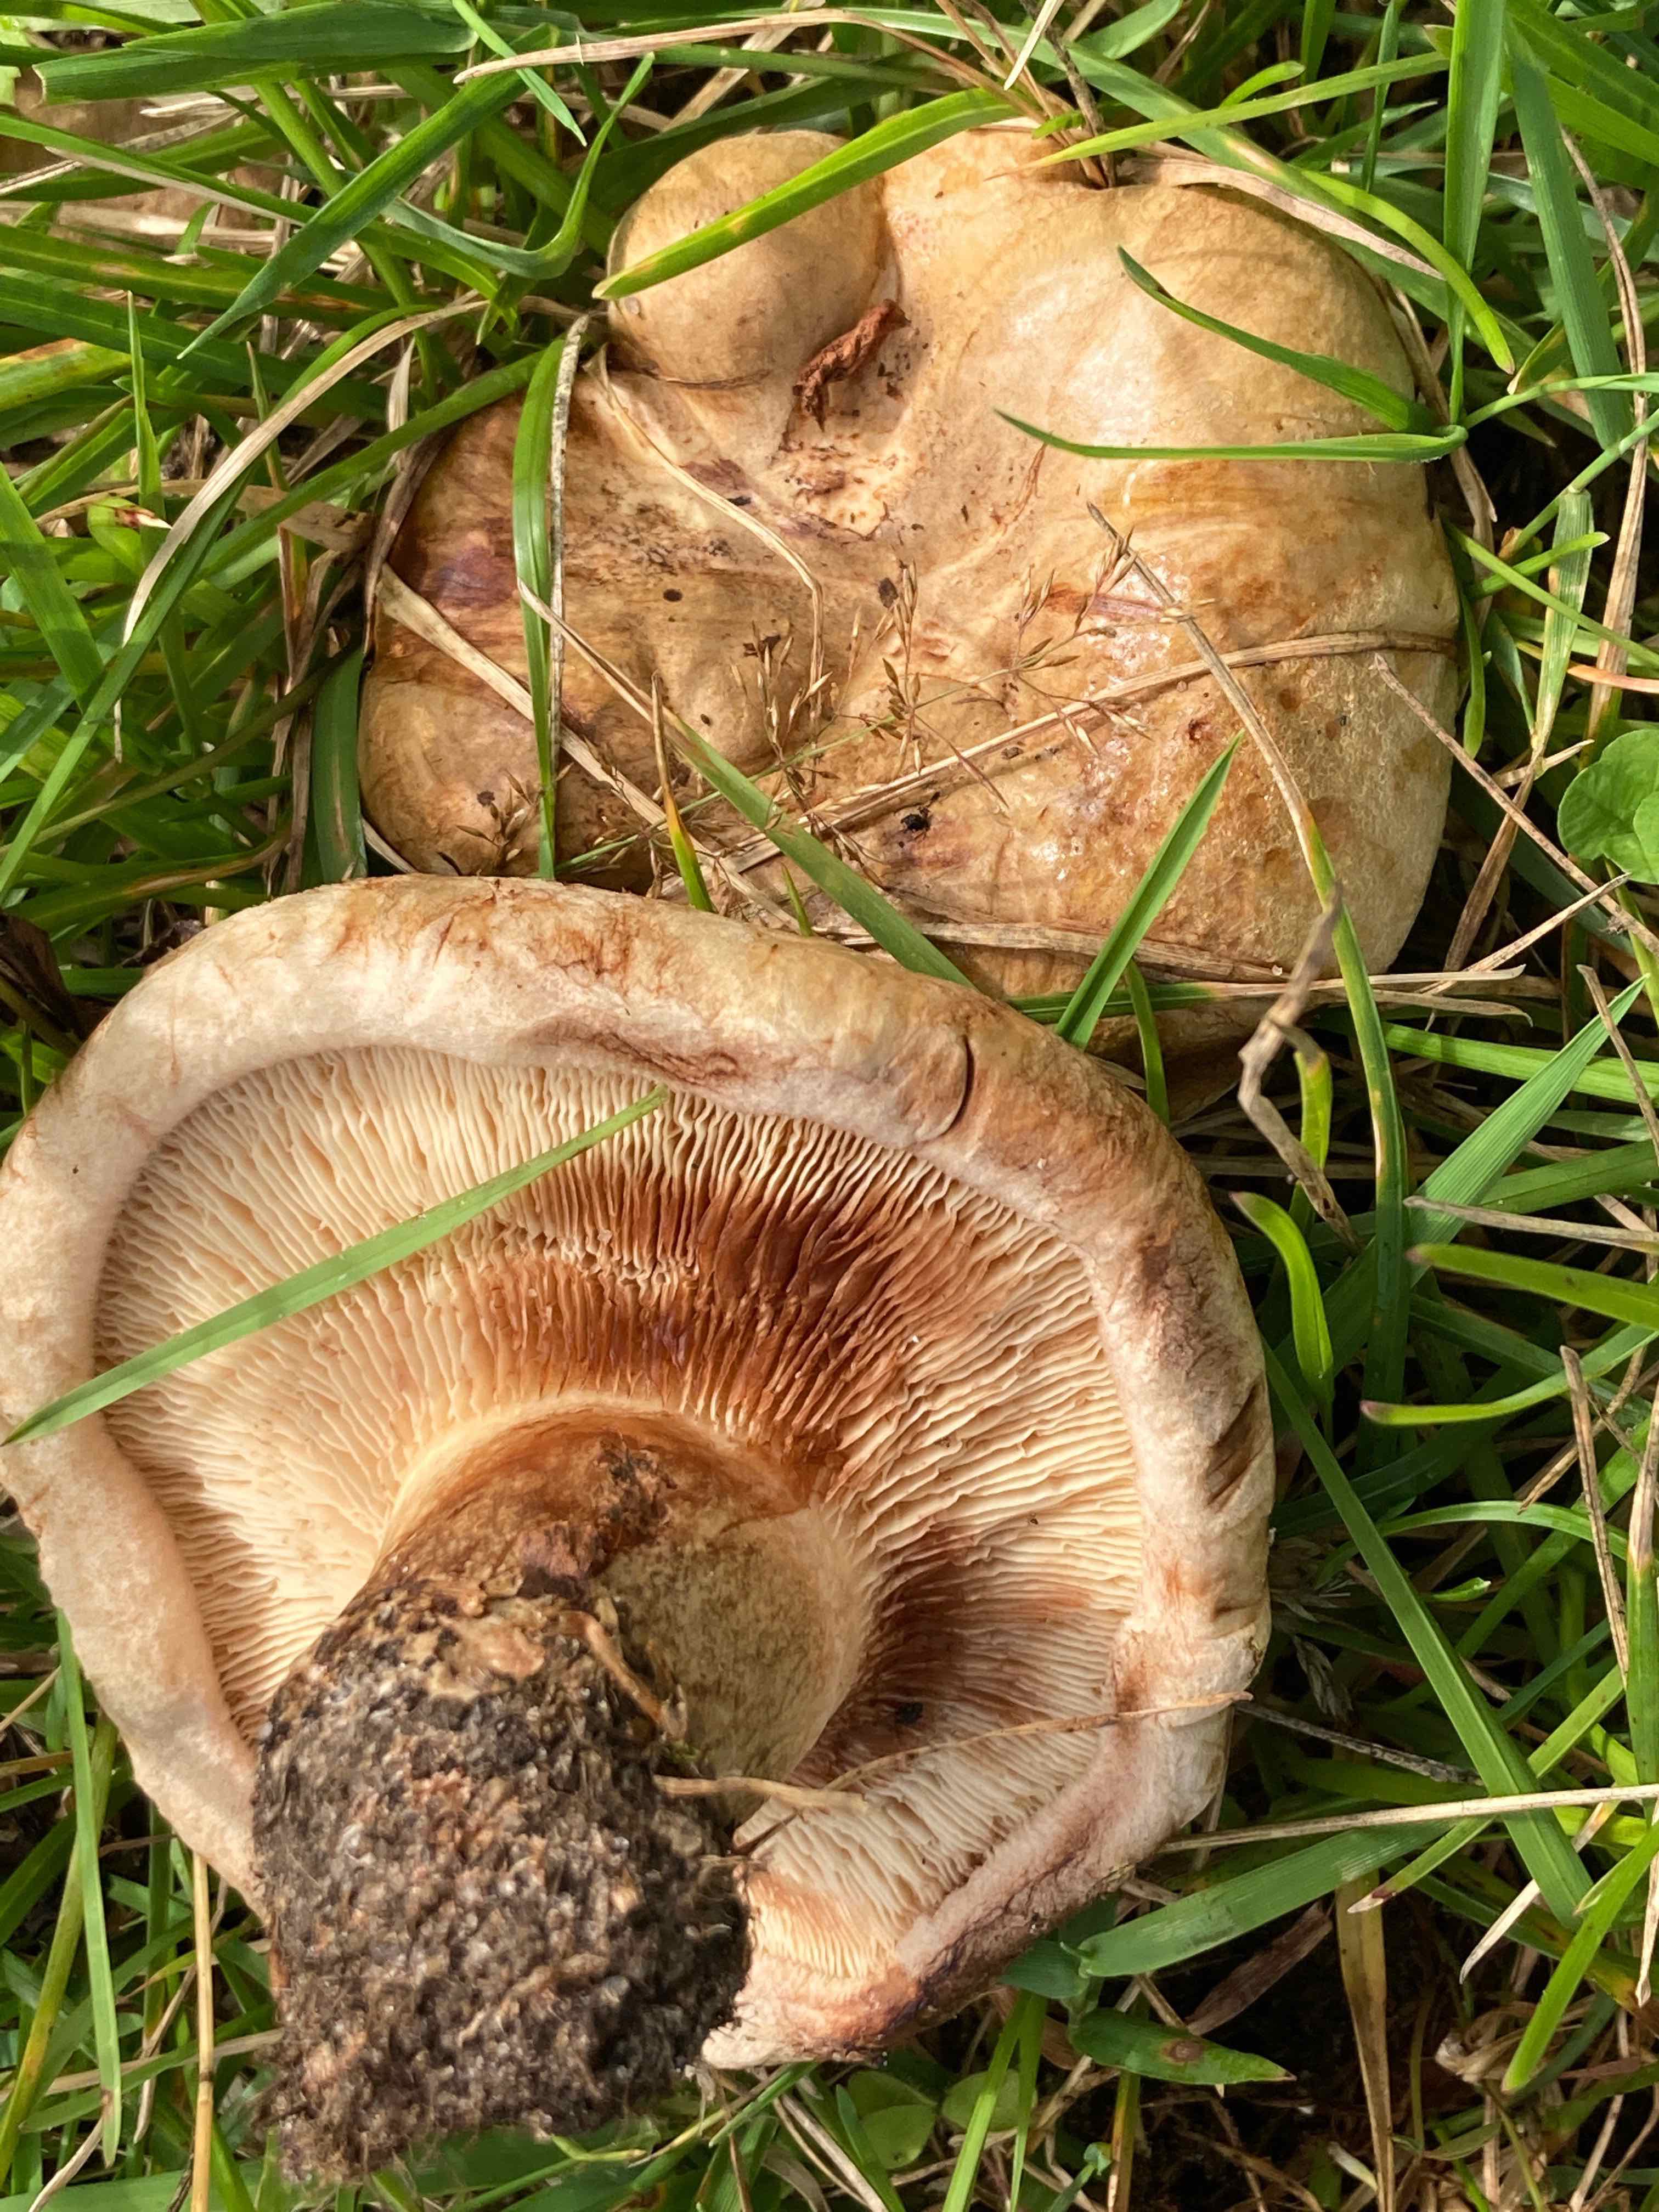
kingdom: Fungi
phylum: Basidiomycota
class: Agaricomycetes
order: Boletales
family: Paxillaceae
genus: Paxillus
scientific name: Paxillus obscurisporus
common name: mahognisporet netbladhat
